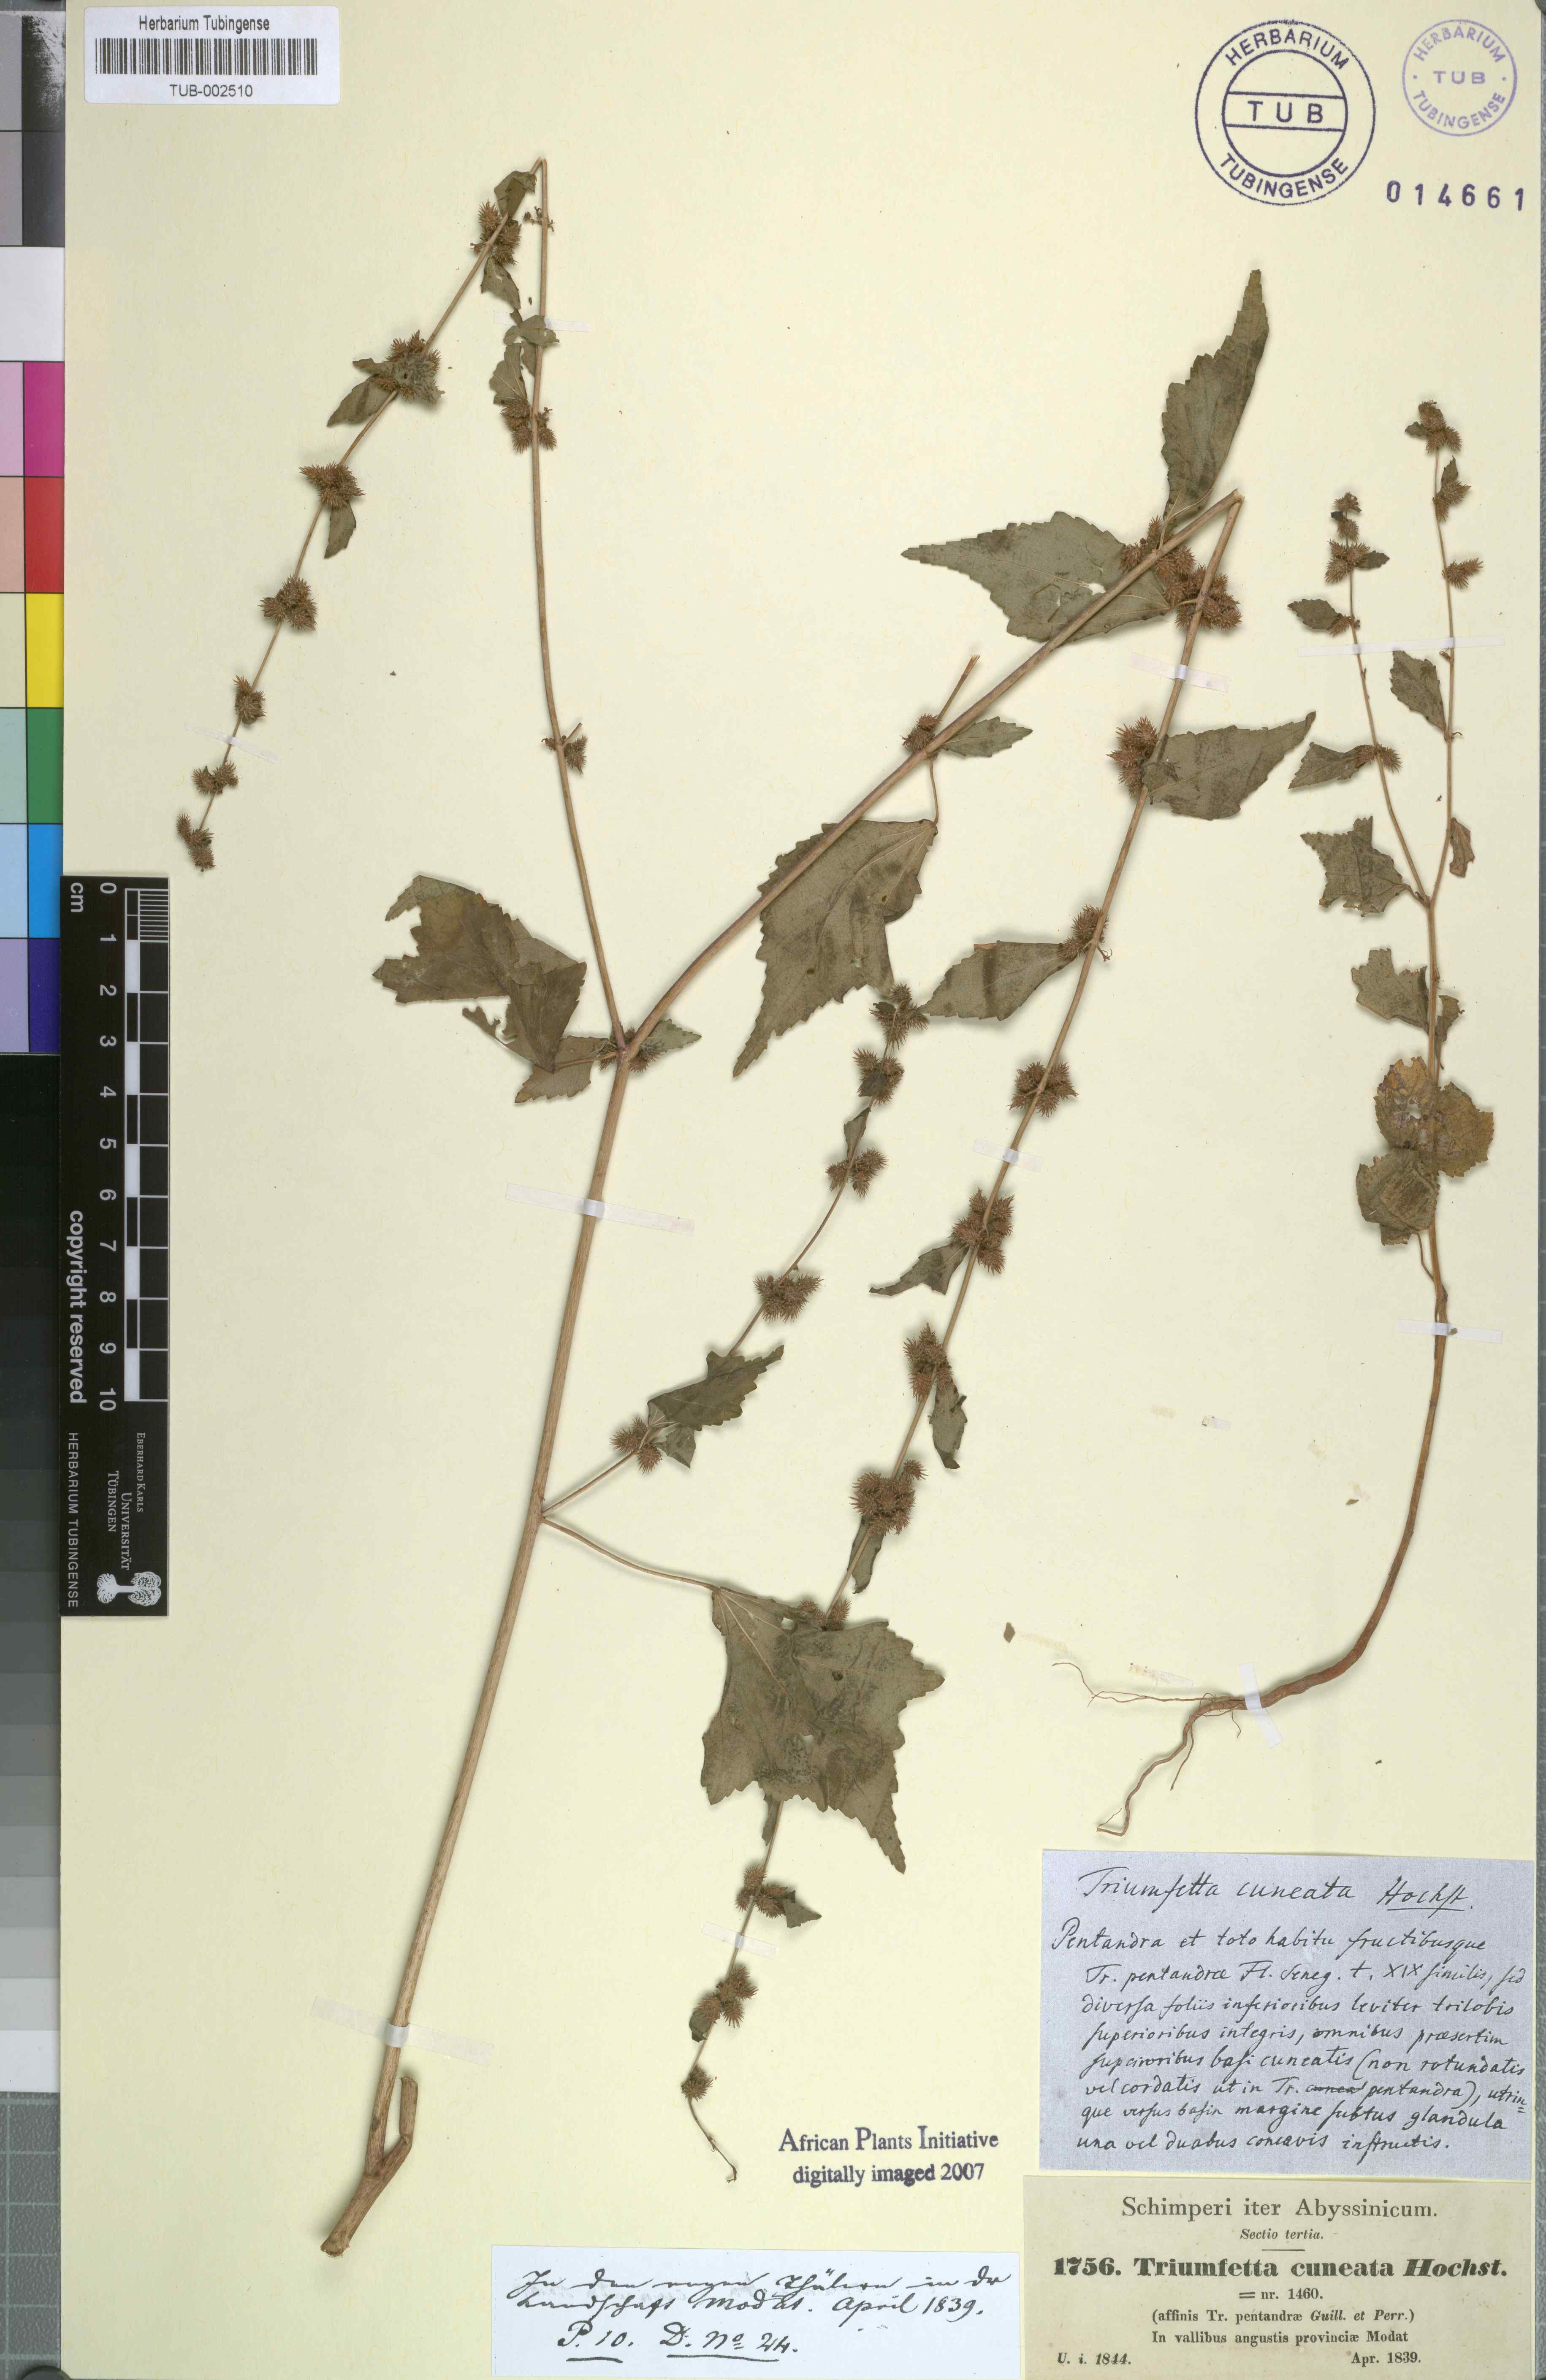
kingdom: Plantae
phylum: Tracheophyta
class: Magnoliopsida
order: Malvales
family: Malvaceae
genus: Triumfetta
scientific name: Triumfetta pentandra
